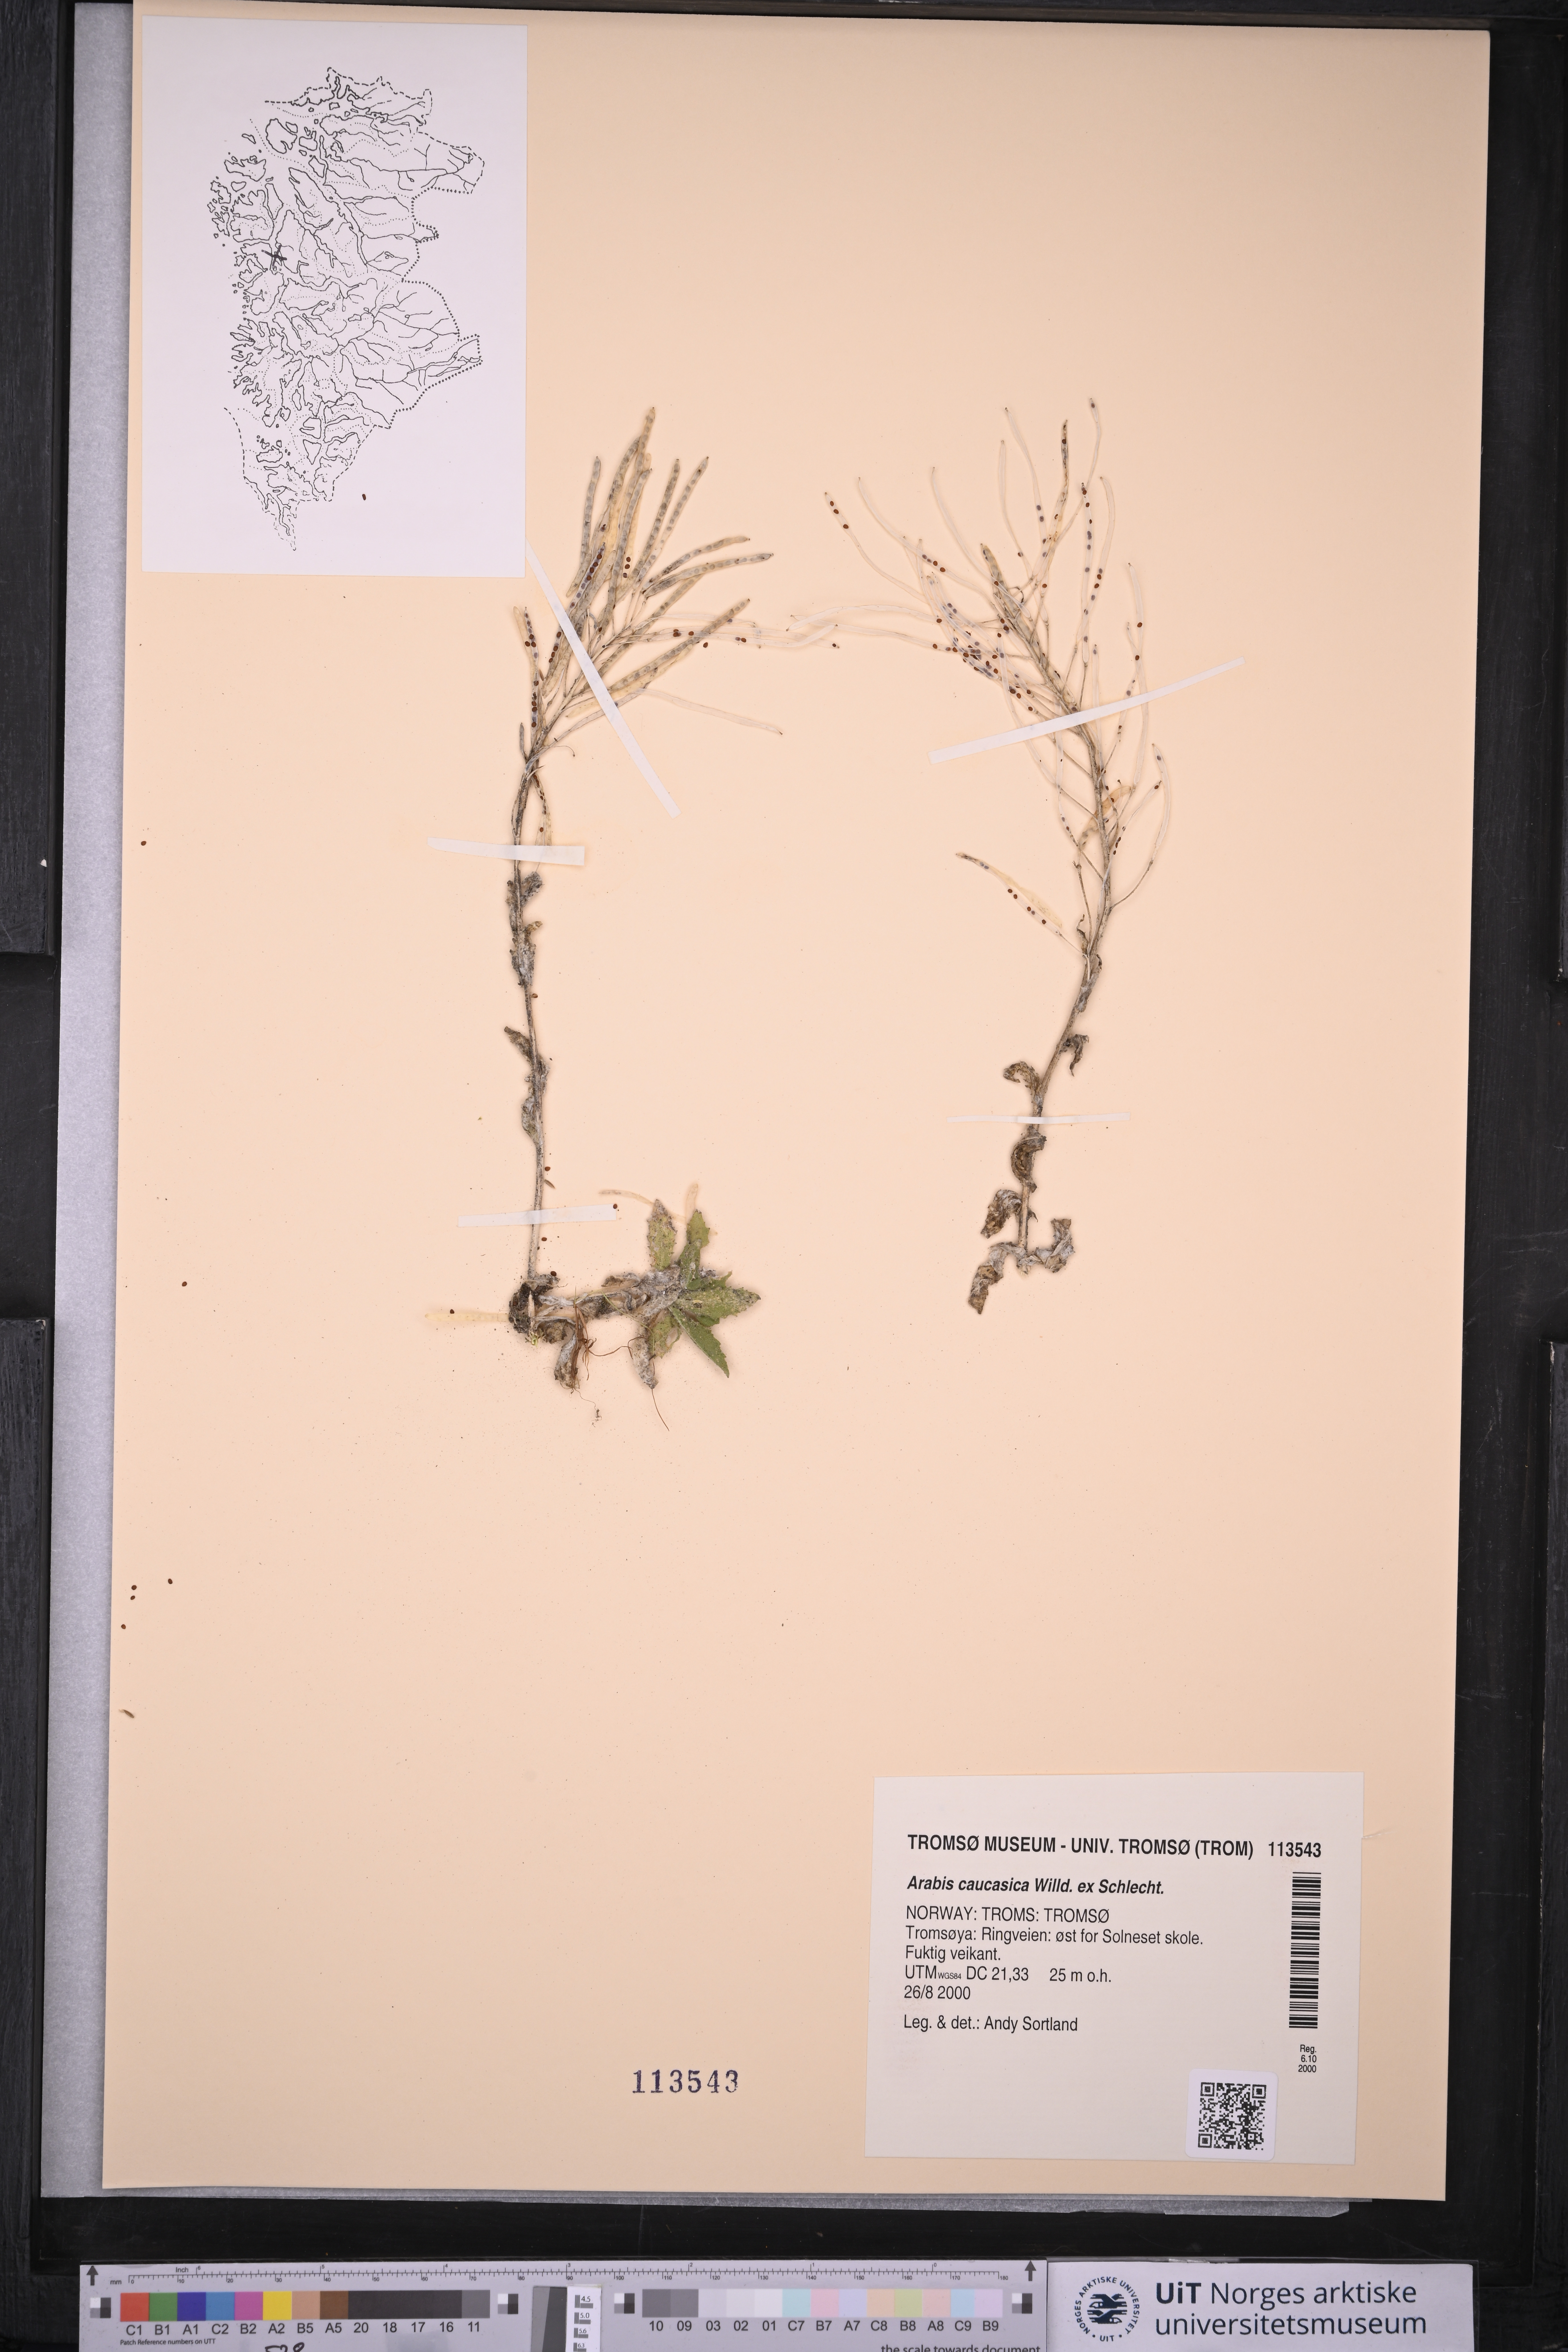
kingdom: Plantae
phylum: Tracheophyta
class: Magnoliopsida
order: Brassicales
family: Brassicaceae
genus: Arabis
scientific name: Arabis caucasica
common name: Gray rockcress
